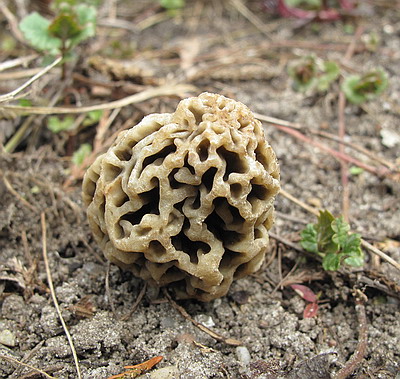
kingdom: Fungi
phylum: Ascomycota
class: Pezizomycetes
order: Pezizales
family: Morchellaceae
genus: Morchella
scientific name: Morchella esculenta
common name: spiselig morkel
